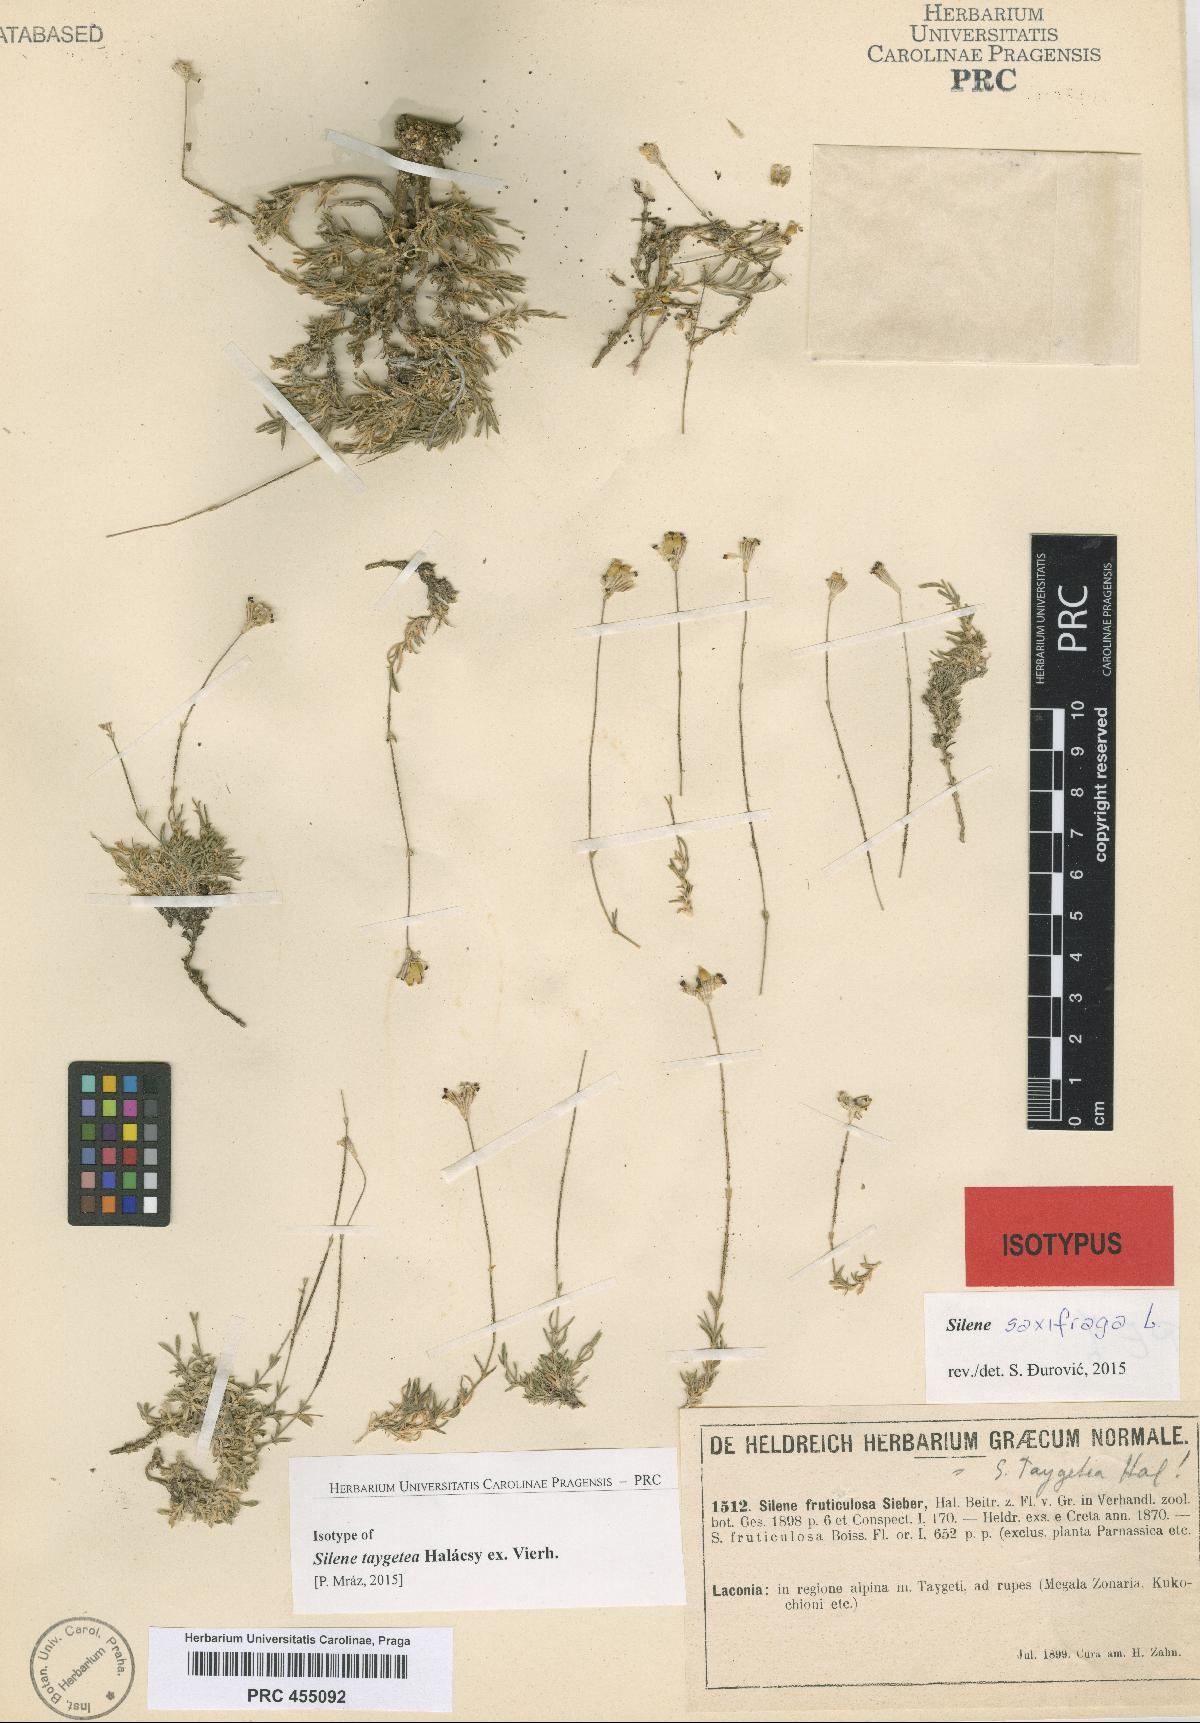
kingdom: Plantae
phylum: Tracheophyta
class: Magnoliopsida
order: Caryophyllales
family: Caryophyllaceae
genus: Silene
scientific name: Silene saxifraga
